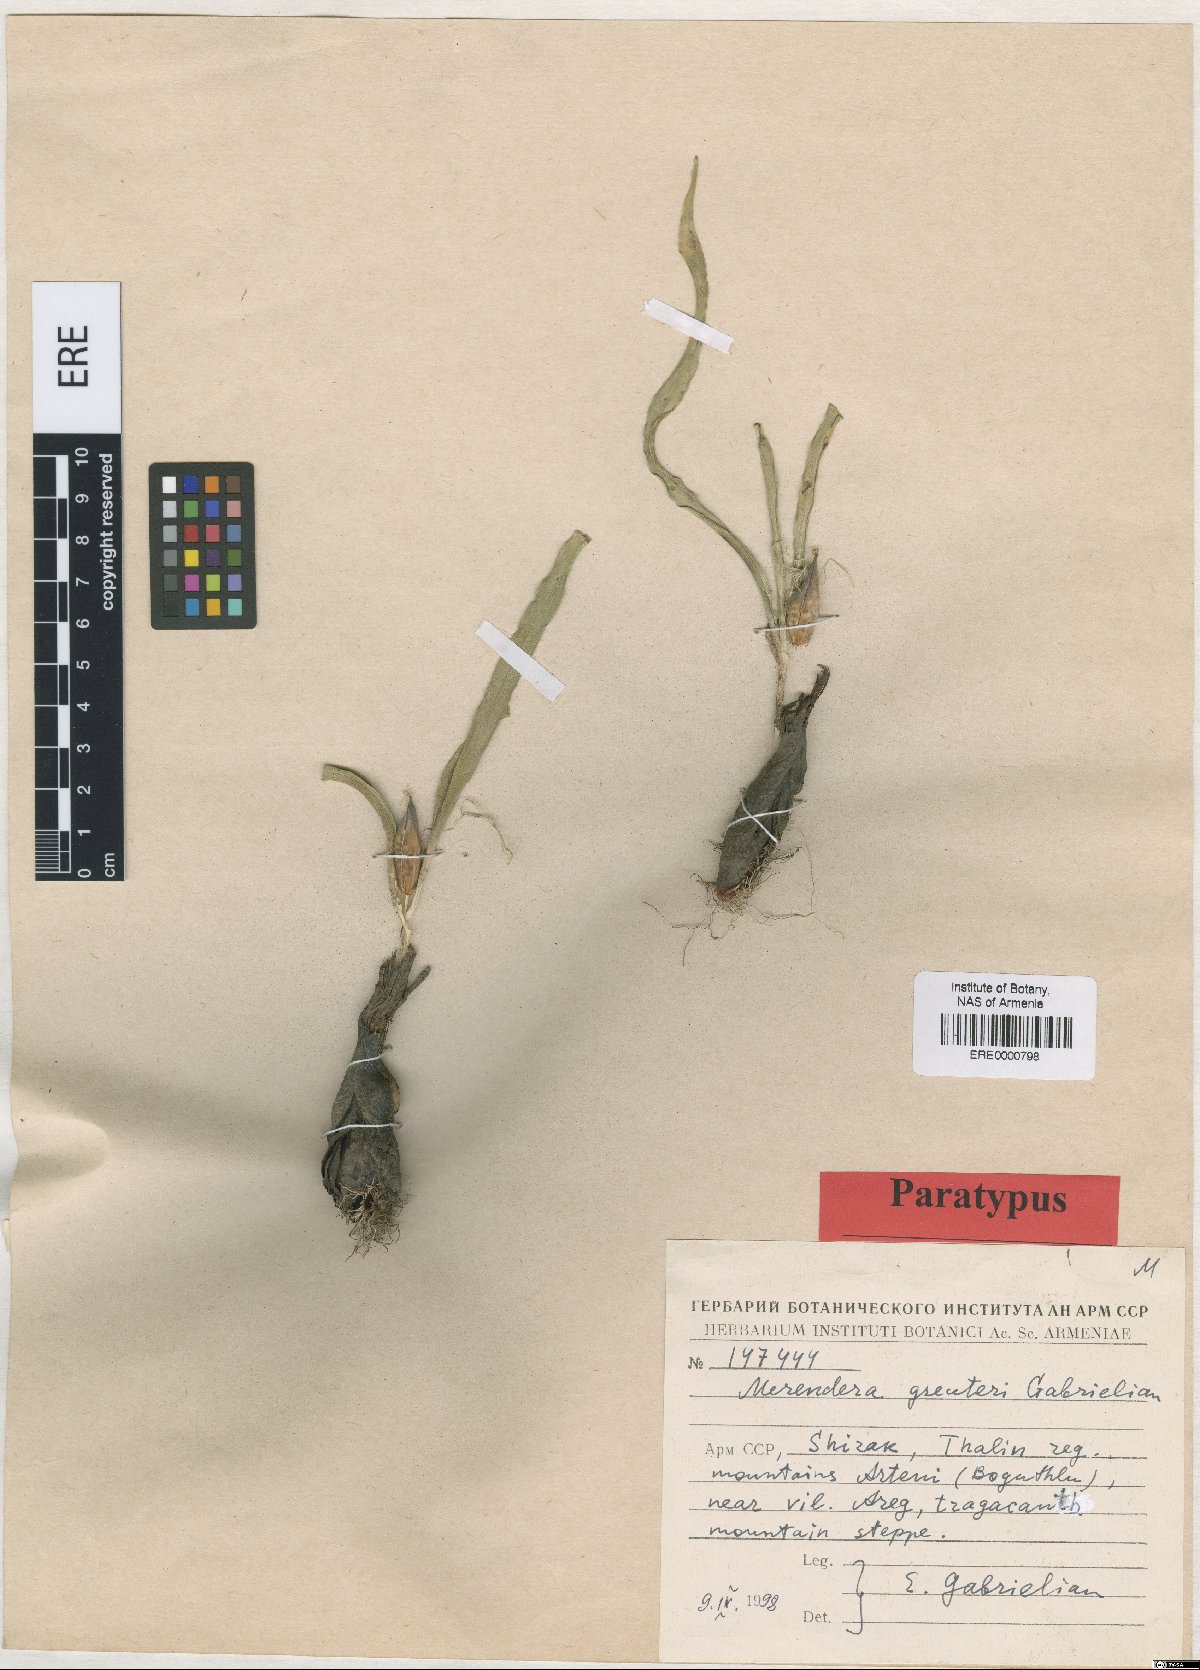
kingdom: Plantae
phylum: Tracheophyta
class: Liliopsida
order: Liliales
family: Colchicaceae
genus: Colchicum
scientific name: Colchicum trigynum
